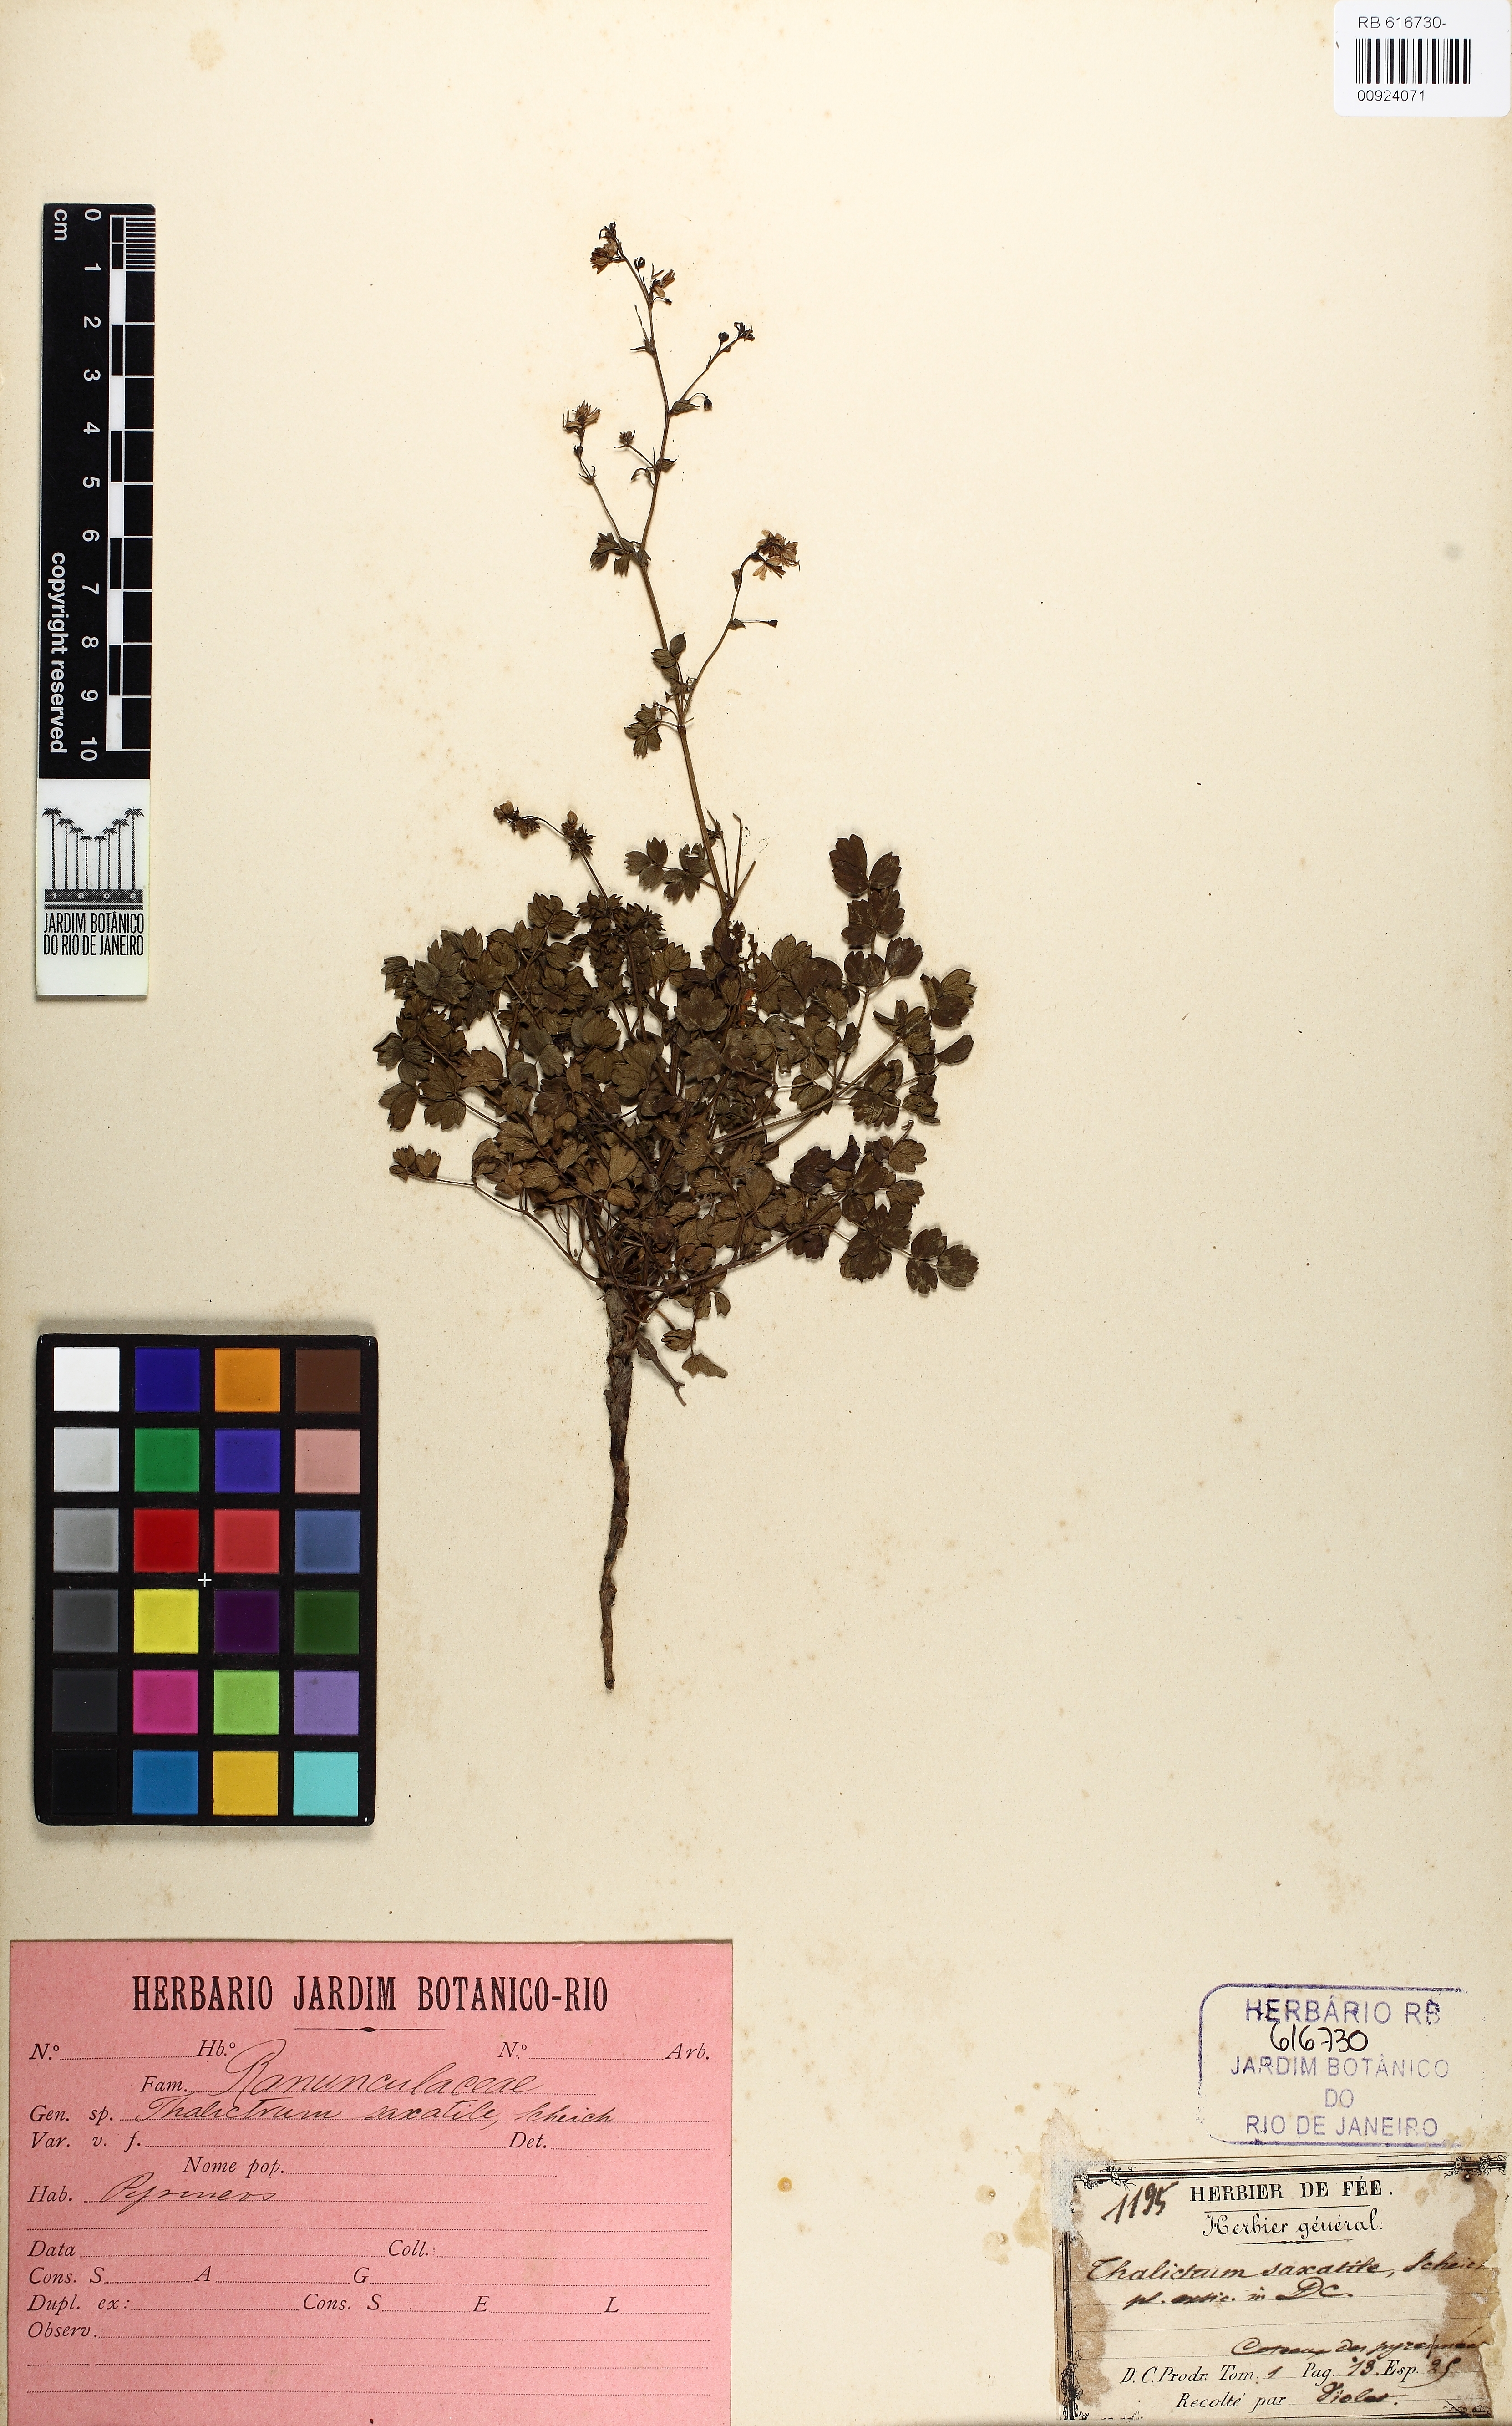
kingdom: Plantae
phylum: Tracheophyta
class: Magnoliopsida
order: Ranunculales
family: Ranunculaceae
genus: Thalictrum
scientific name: Thalictrum minus
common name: Lesser meadow-rue
